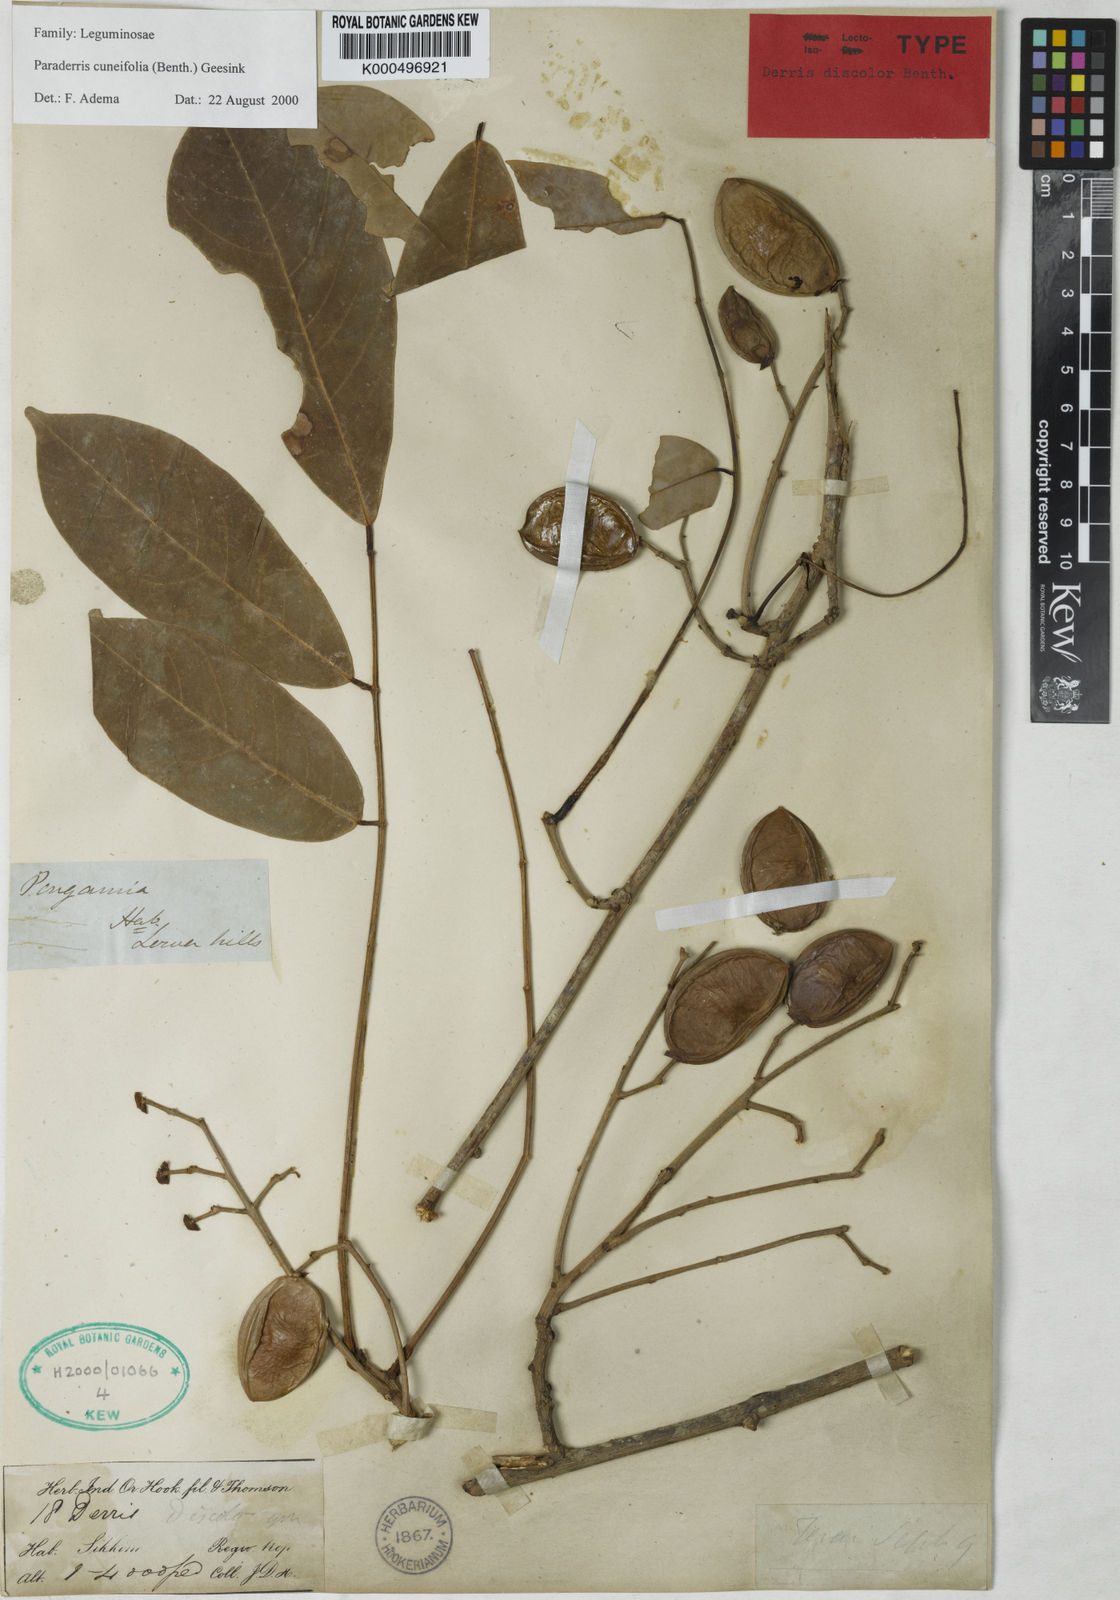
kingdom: Plantae
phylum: Tracheophyta
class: Magnoliopsida
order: Fabales
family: Fabaceae
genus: Derris
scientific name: Derris cuneifolia
